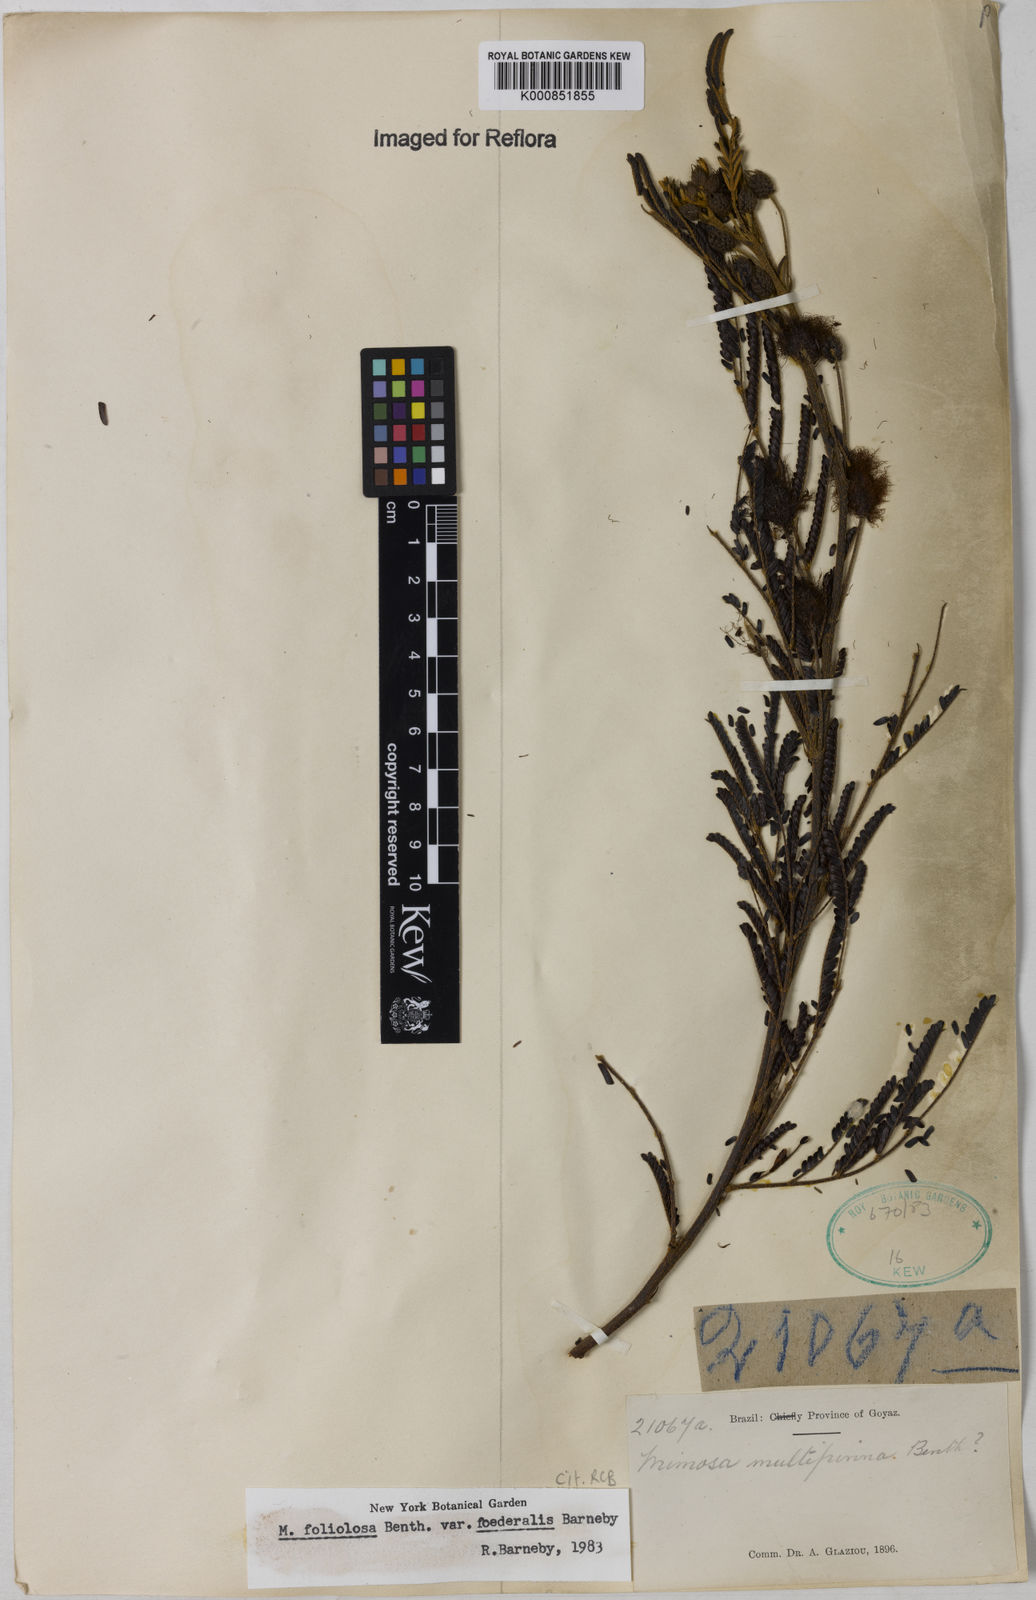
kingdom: Plantae
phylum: Tracheophyta
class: Magnoliopsida
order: Fabales
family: Fabaceae
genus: Mimosa
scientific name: Mimosa foliolosa
